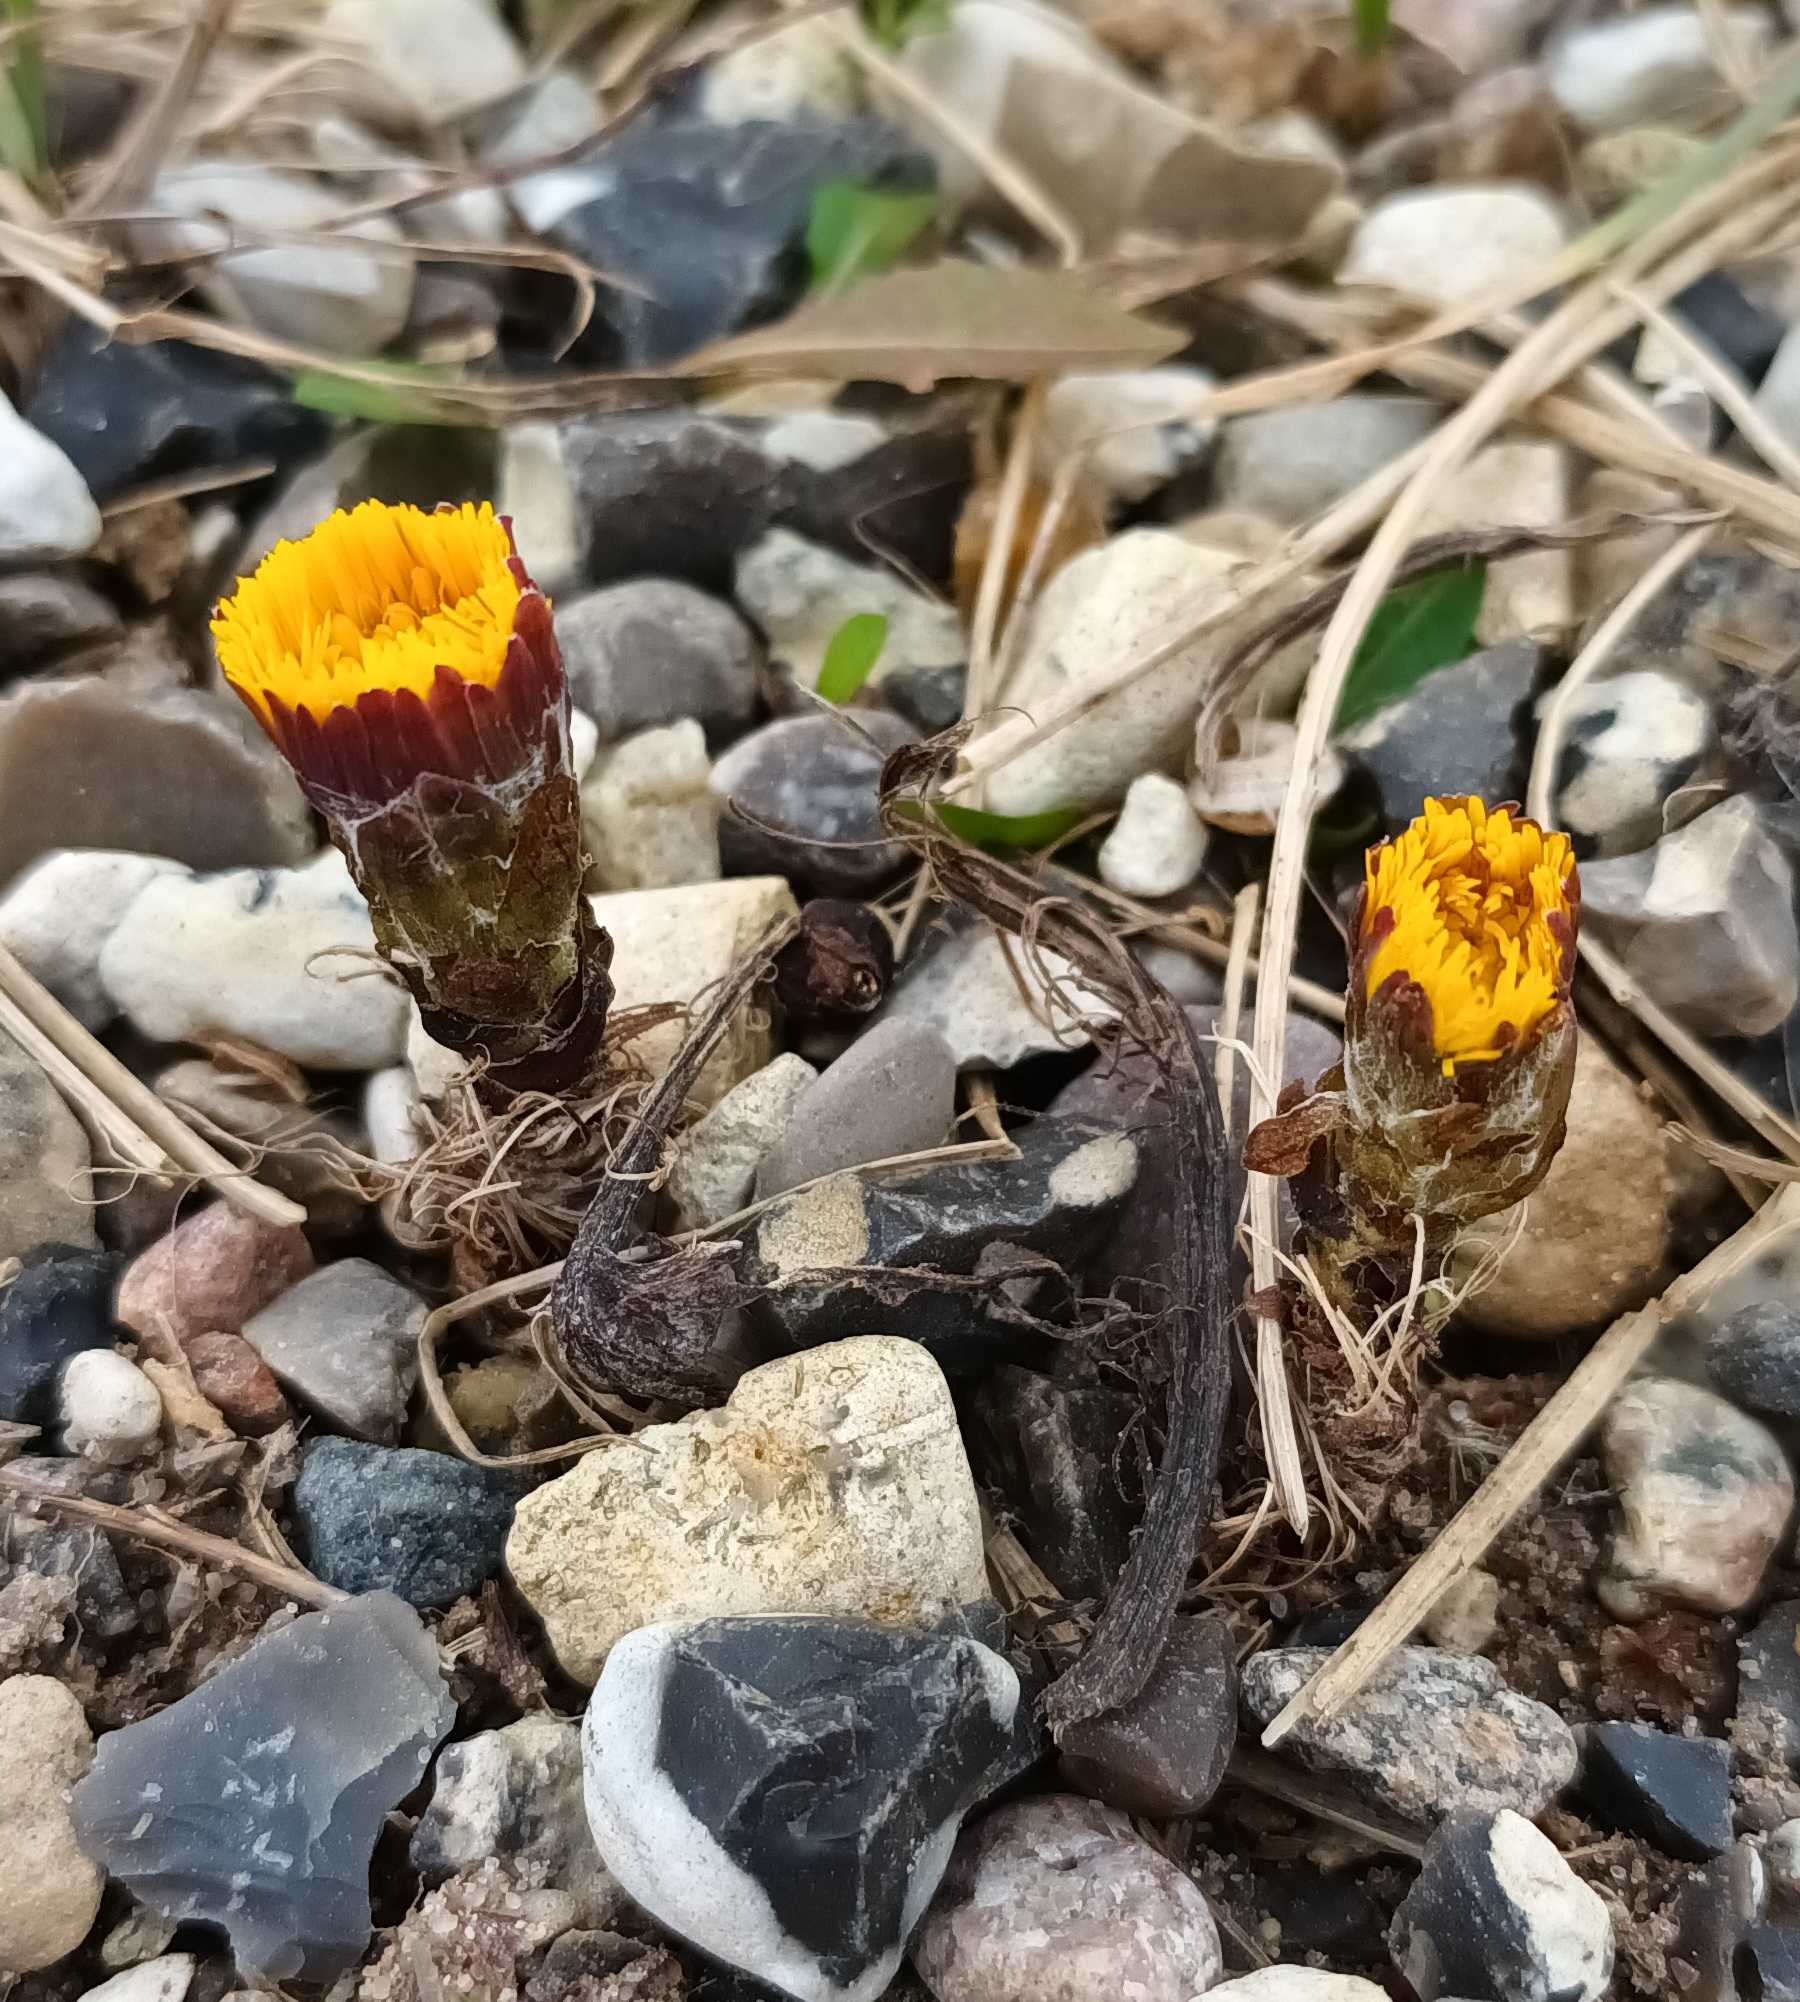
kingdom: Plantae
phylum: Tracheophyta
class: Magnoliopsida
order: Asterales
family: Asteraceae
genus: Tussilago
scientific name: Tussilago farfara
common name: Følfod
